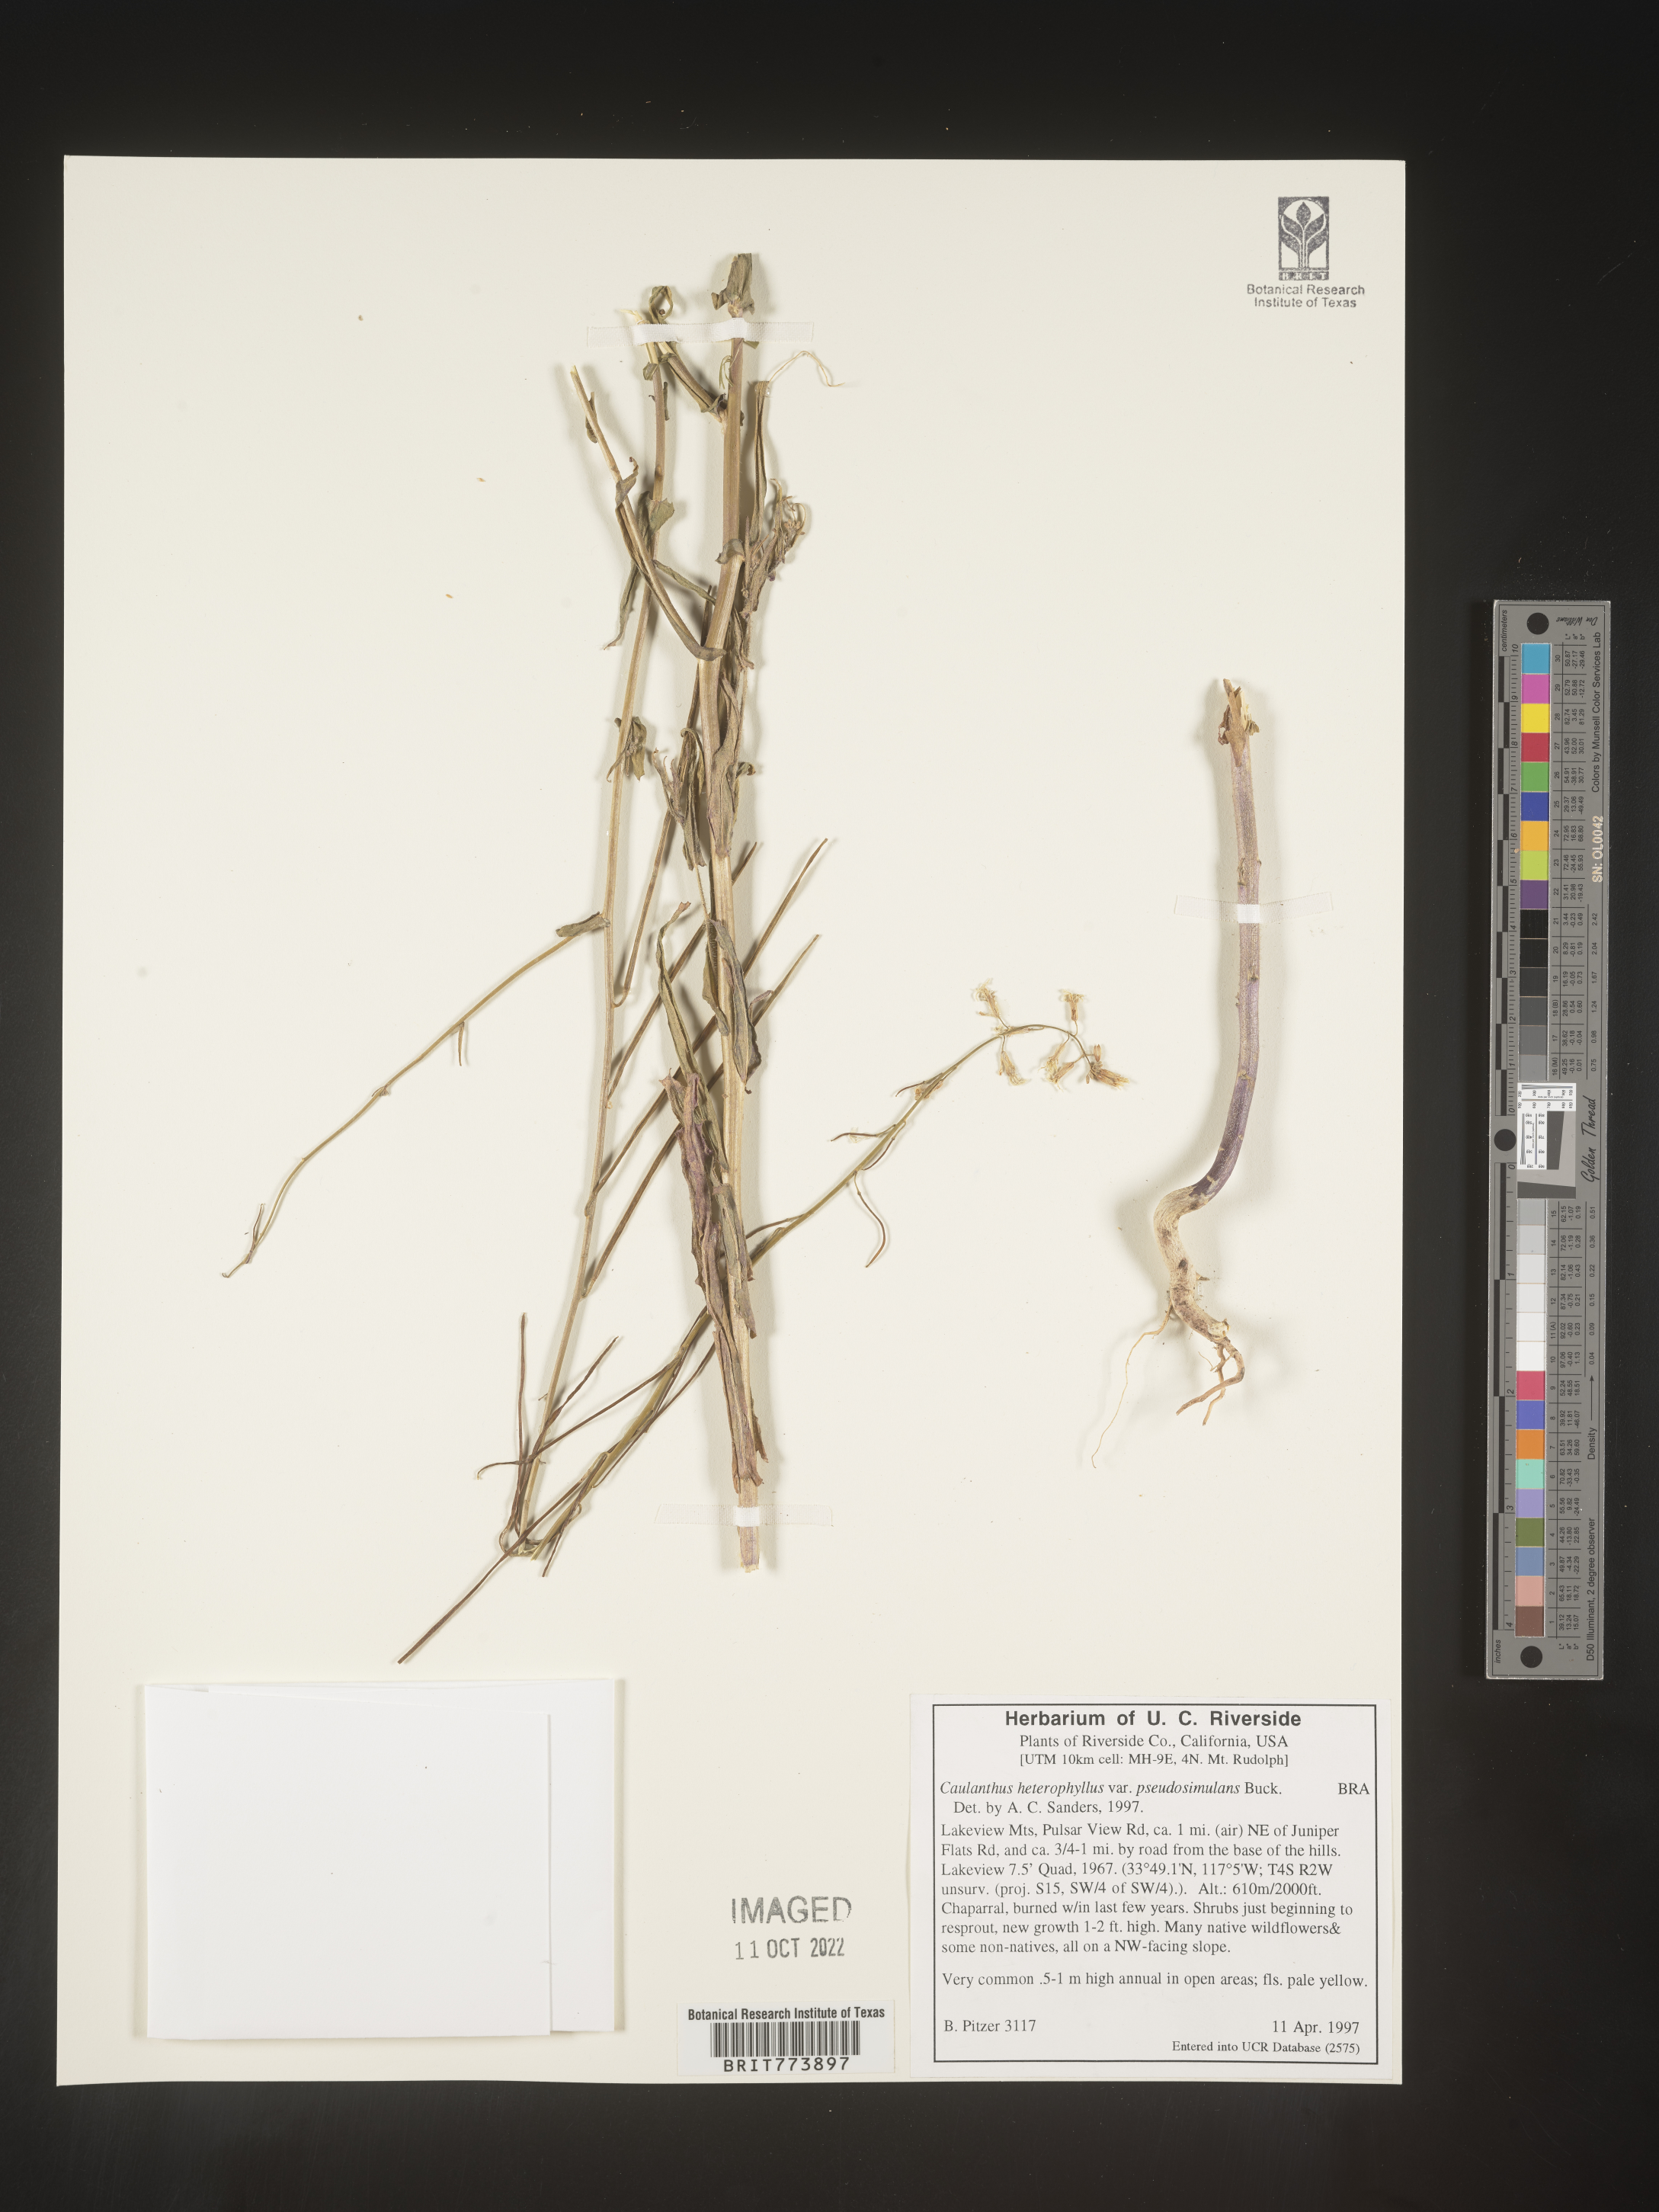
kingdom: Plantae
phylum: Tracheophyta
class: Magnoliopsida
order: Brassicales
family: Brassicaceae
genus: Streptanthus
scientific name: Streptanthus
